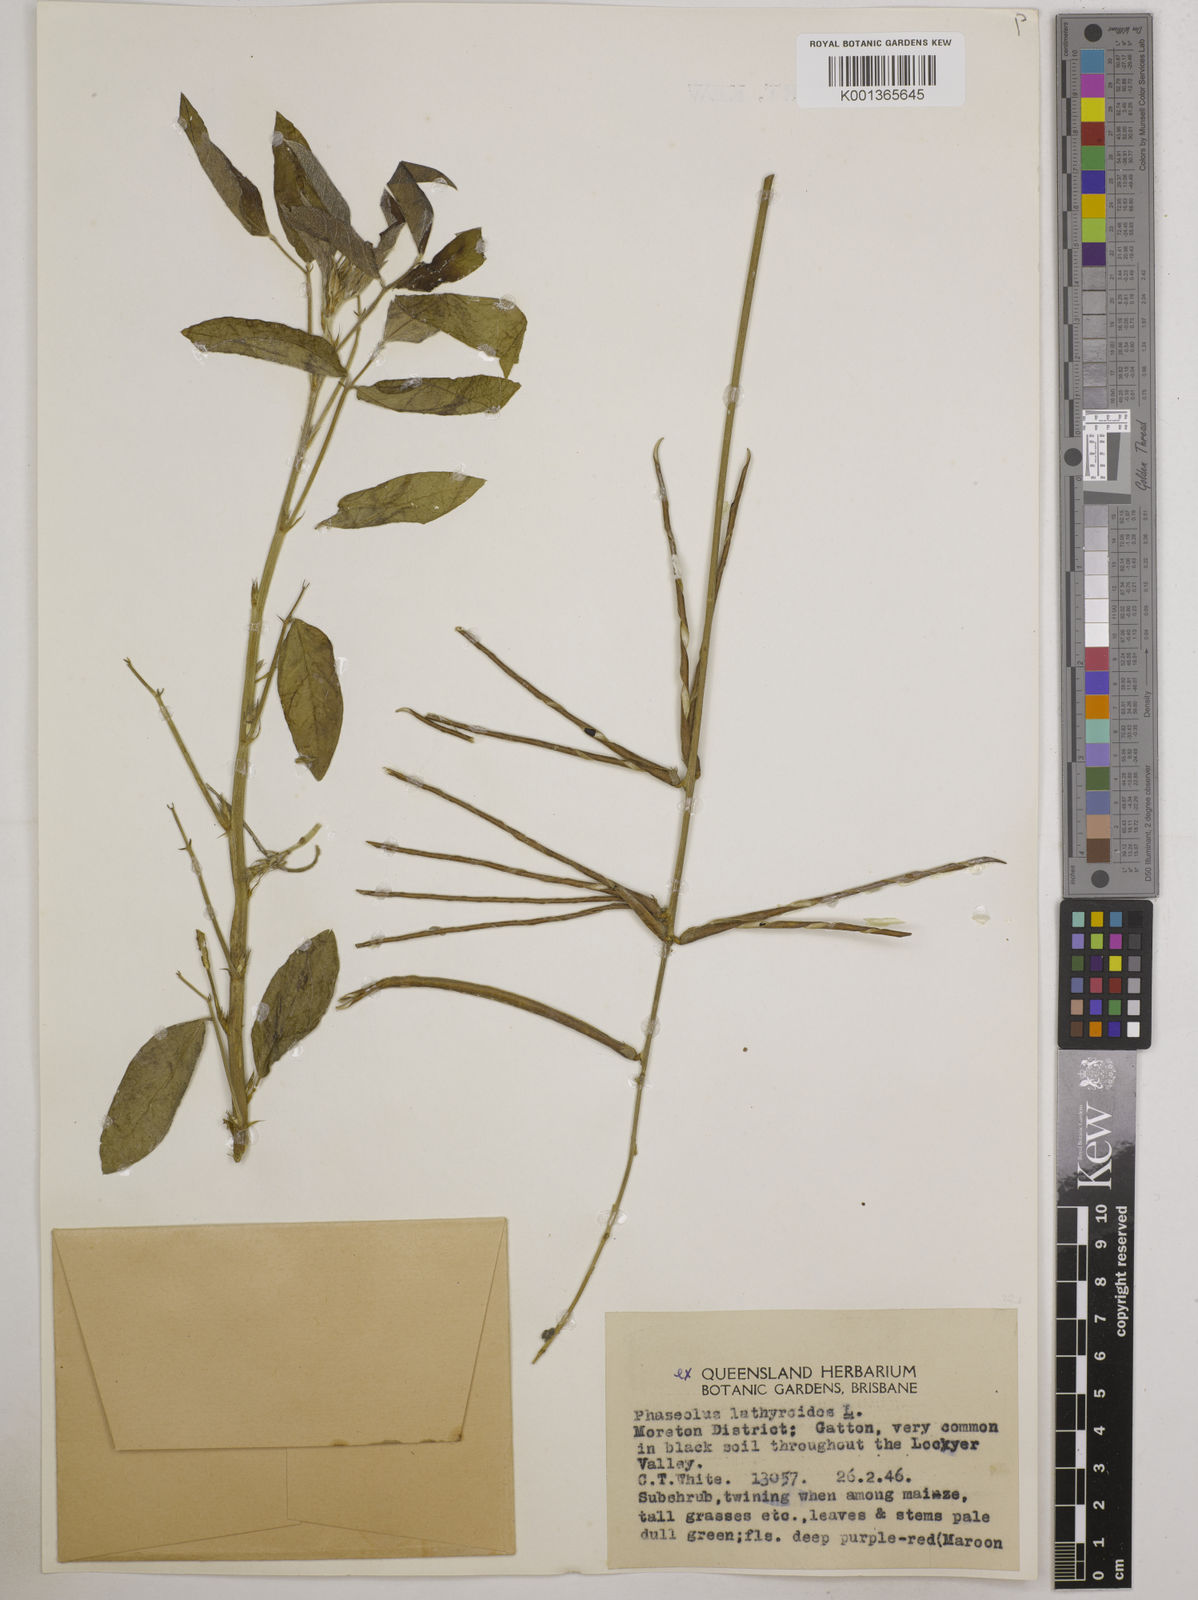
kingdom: Plantae
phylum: Tracheophyta
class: Magnoliopsida
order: Fabales
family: Fabaceae
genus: Macroptilium
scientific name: Macroptilium lathyroides
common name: Wild bushbean
